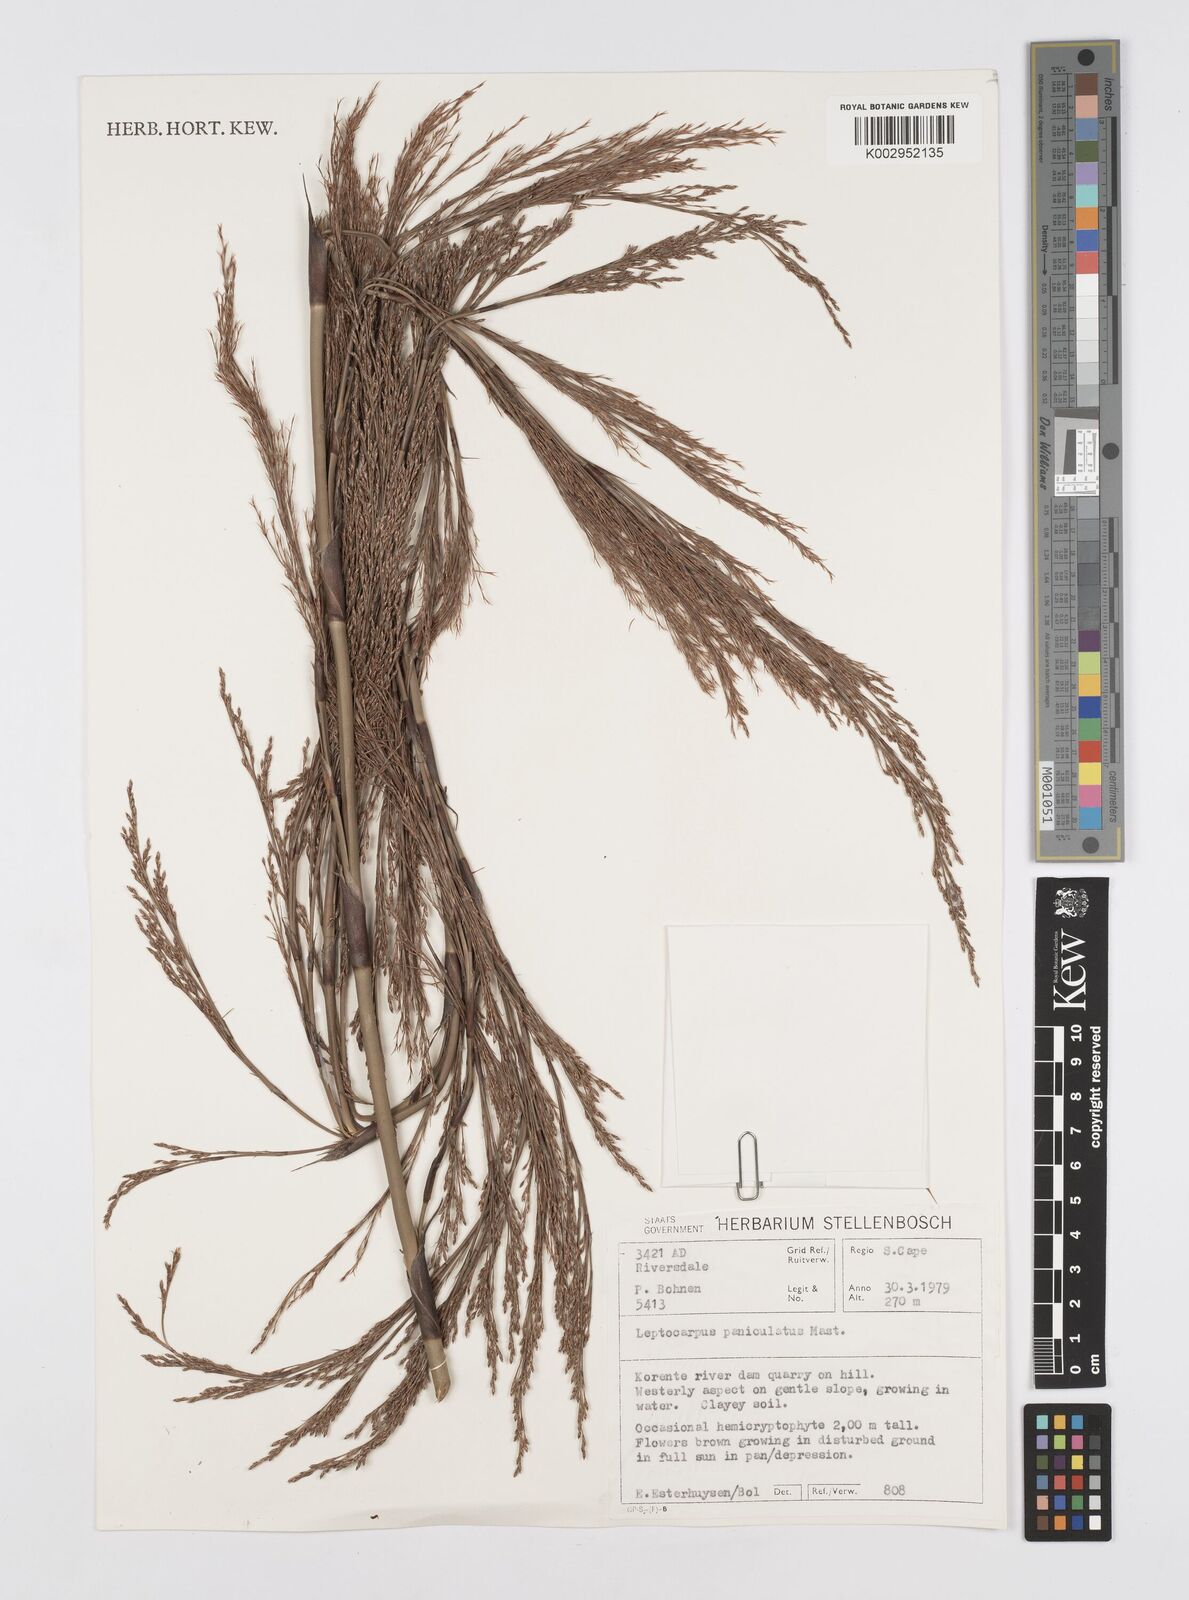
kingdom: Plantae
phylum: Tracheophyta
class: Liliopsida
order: Poales
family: Restionaceae
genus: Restio
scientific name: Restio paniculatus
